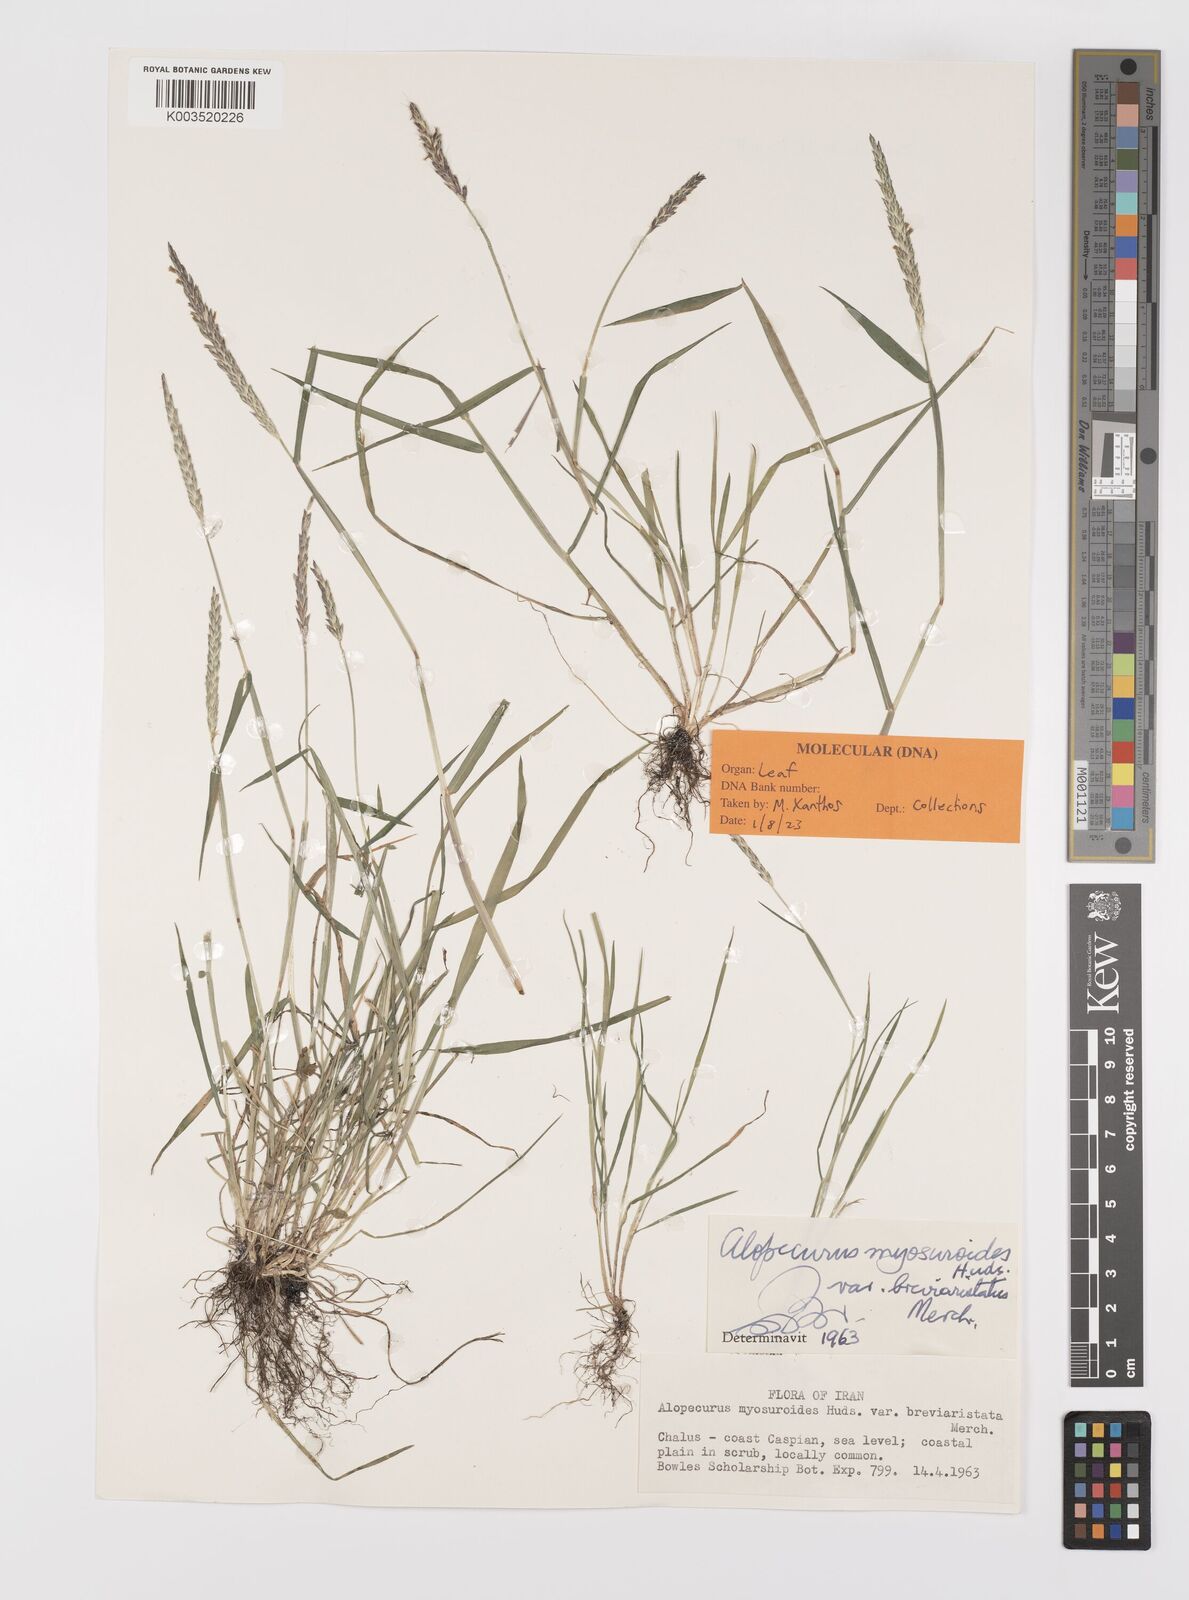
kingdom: Plantae
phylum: Tracheophyta
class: Liliopsida
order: Poales
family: Poaceae
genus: Alopecurus
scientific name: Alopecurus myosuroides
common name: Black-grass
